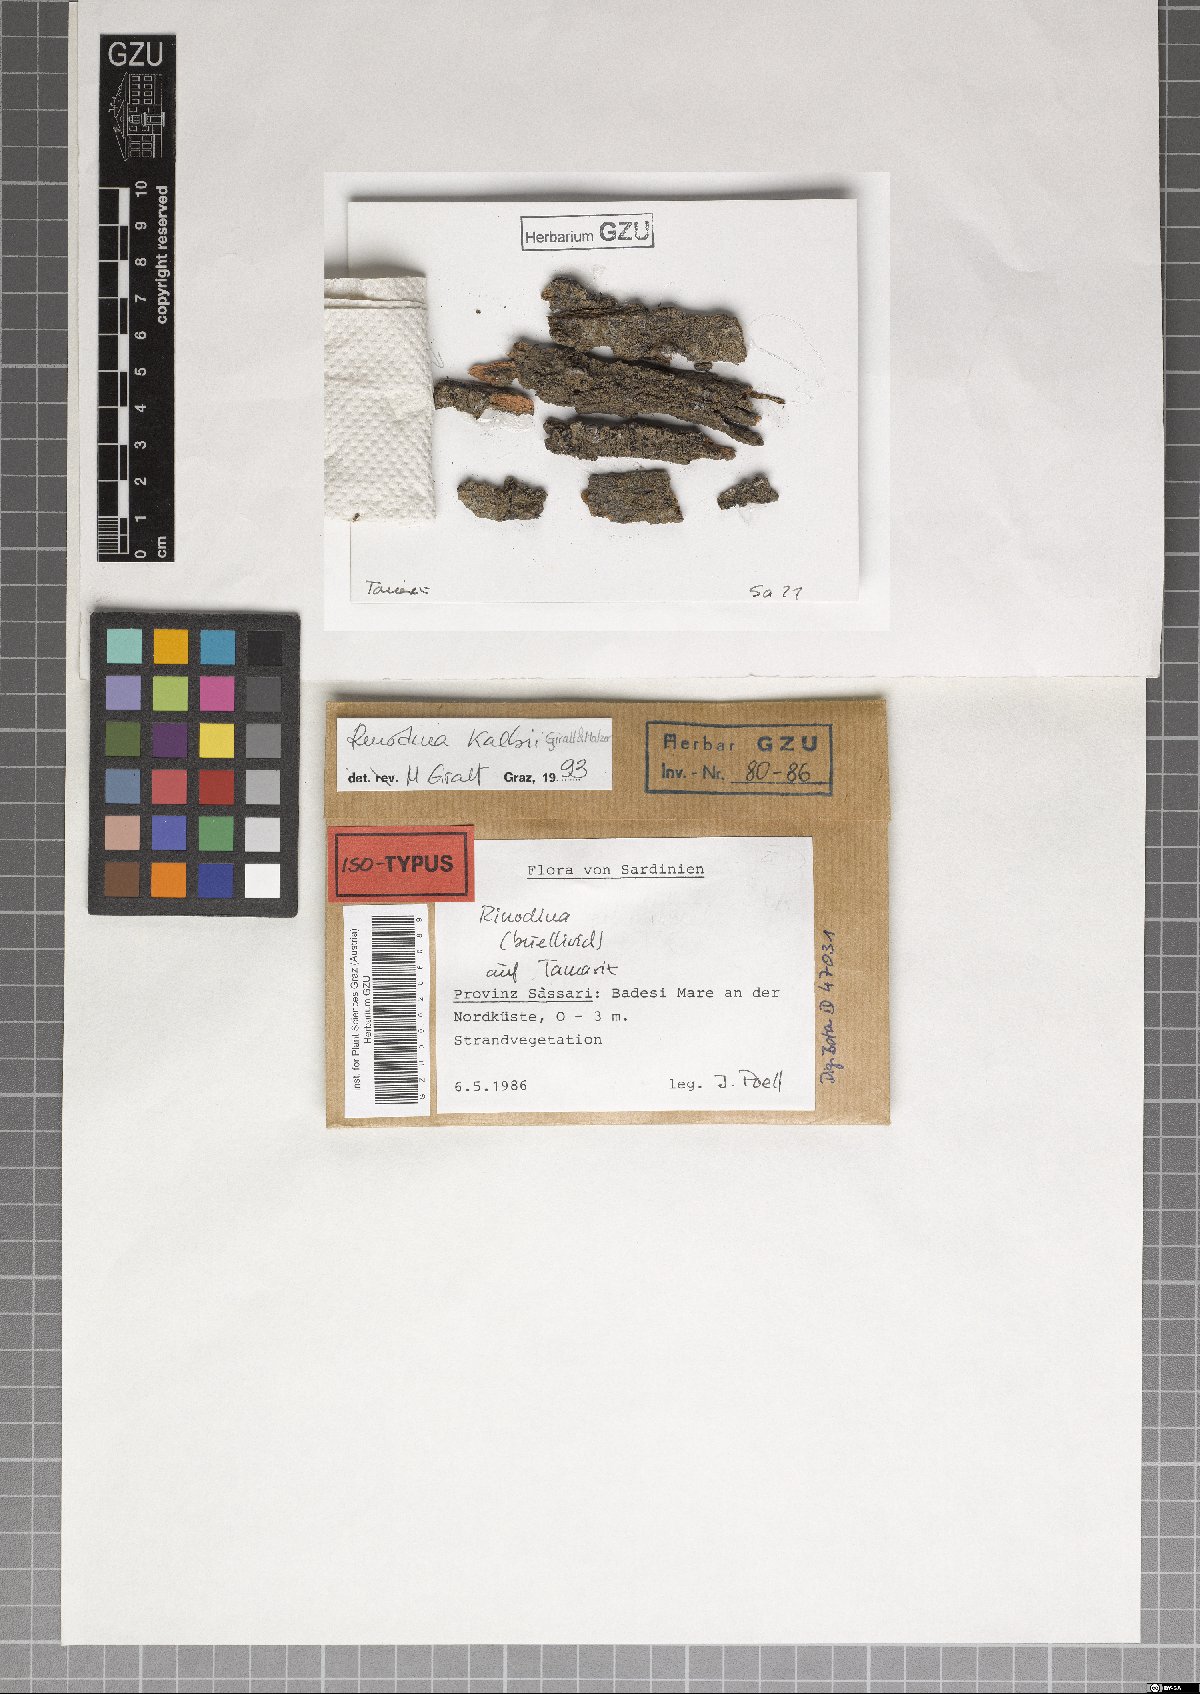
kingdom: Fungi
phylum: Ascomycota
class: Lecanoromycetes
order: Caliciales
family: Caliciaceae
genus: Endohyalina
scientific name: Endohyalina kalbii
